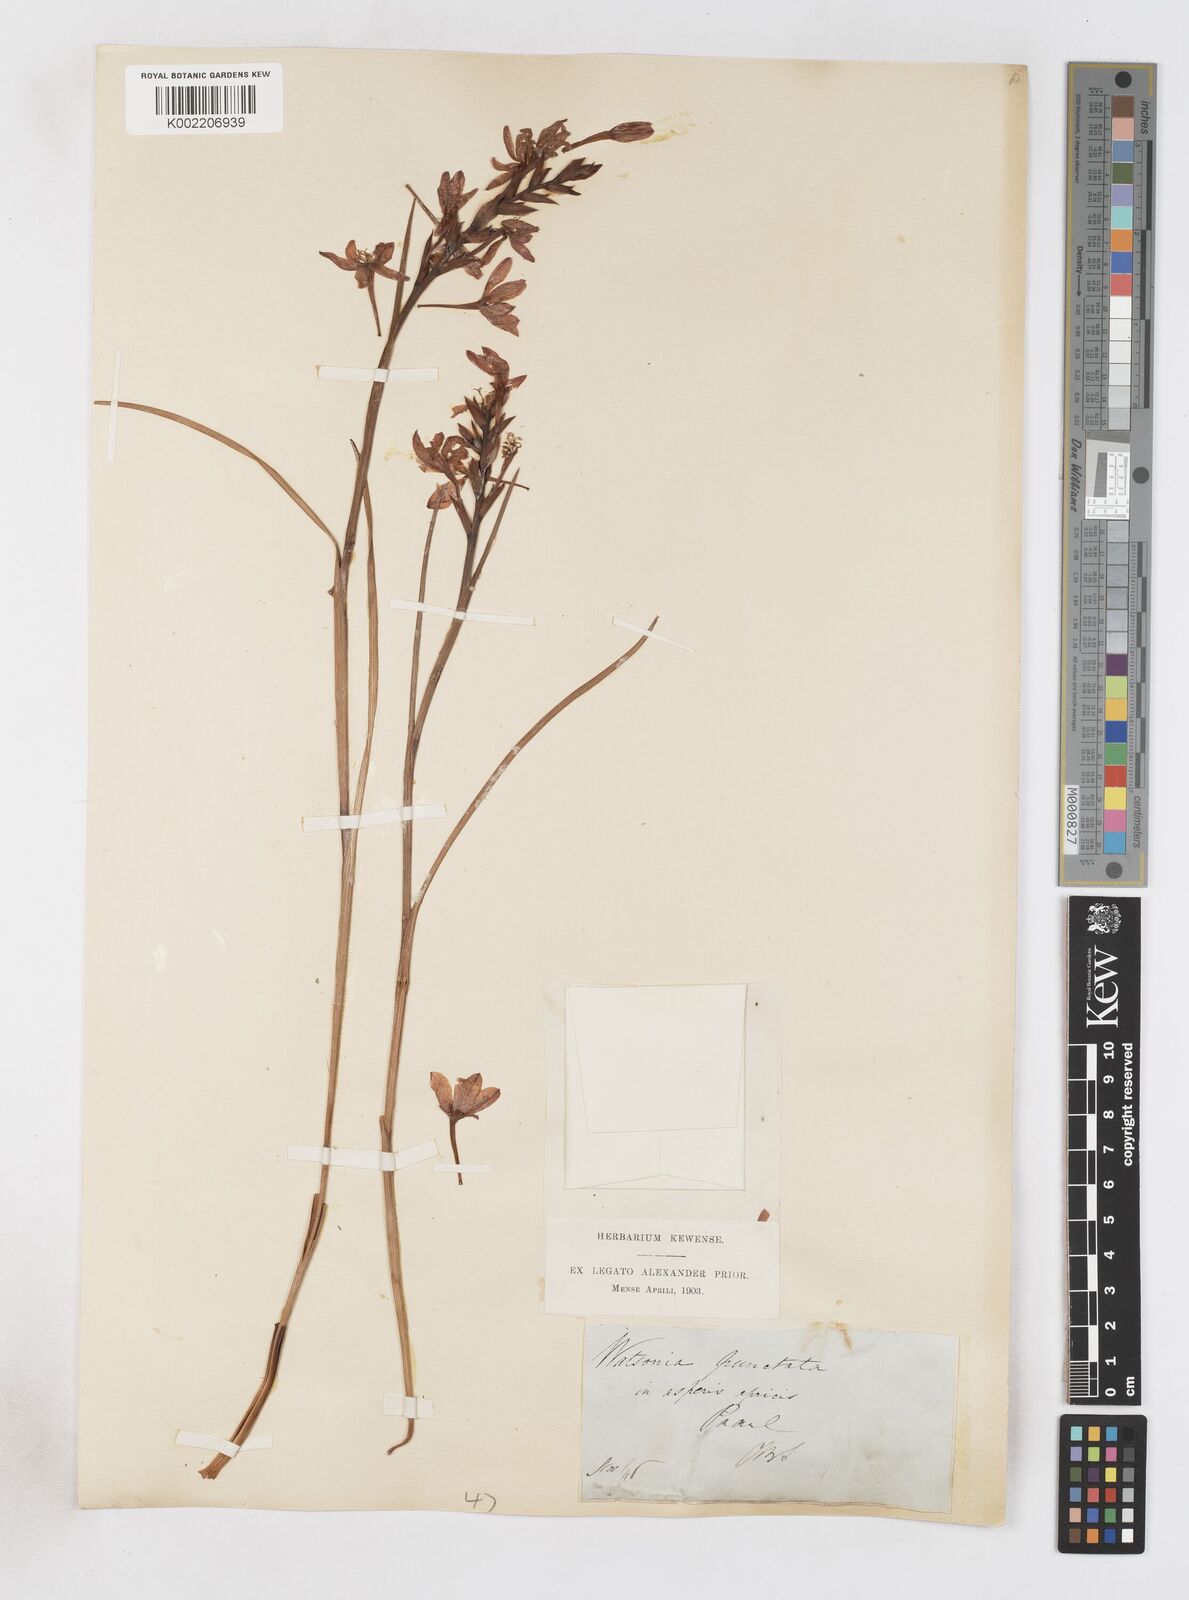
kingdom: Plantae
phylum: Tracheophyta
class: Liliopsida
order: Asparagales
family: Iridaceae
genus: Thereianthus
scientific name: Thereianthus spicatus
